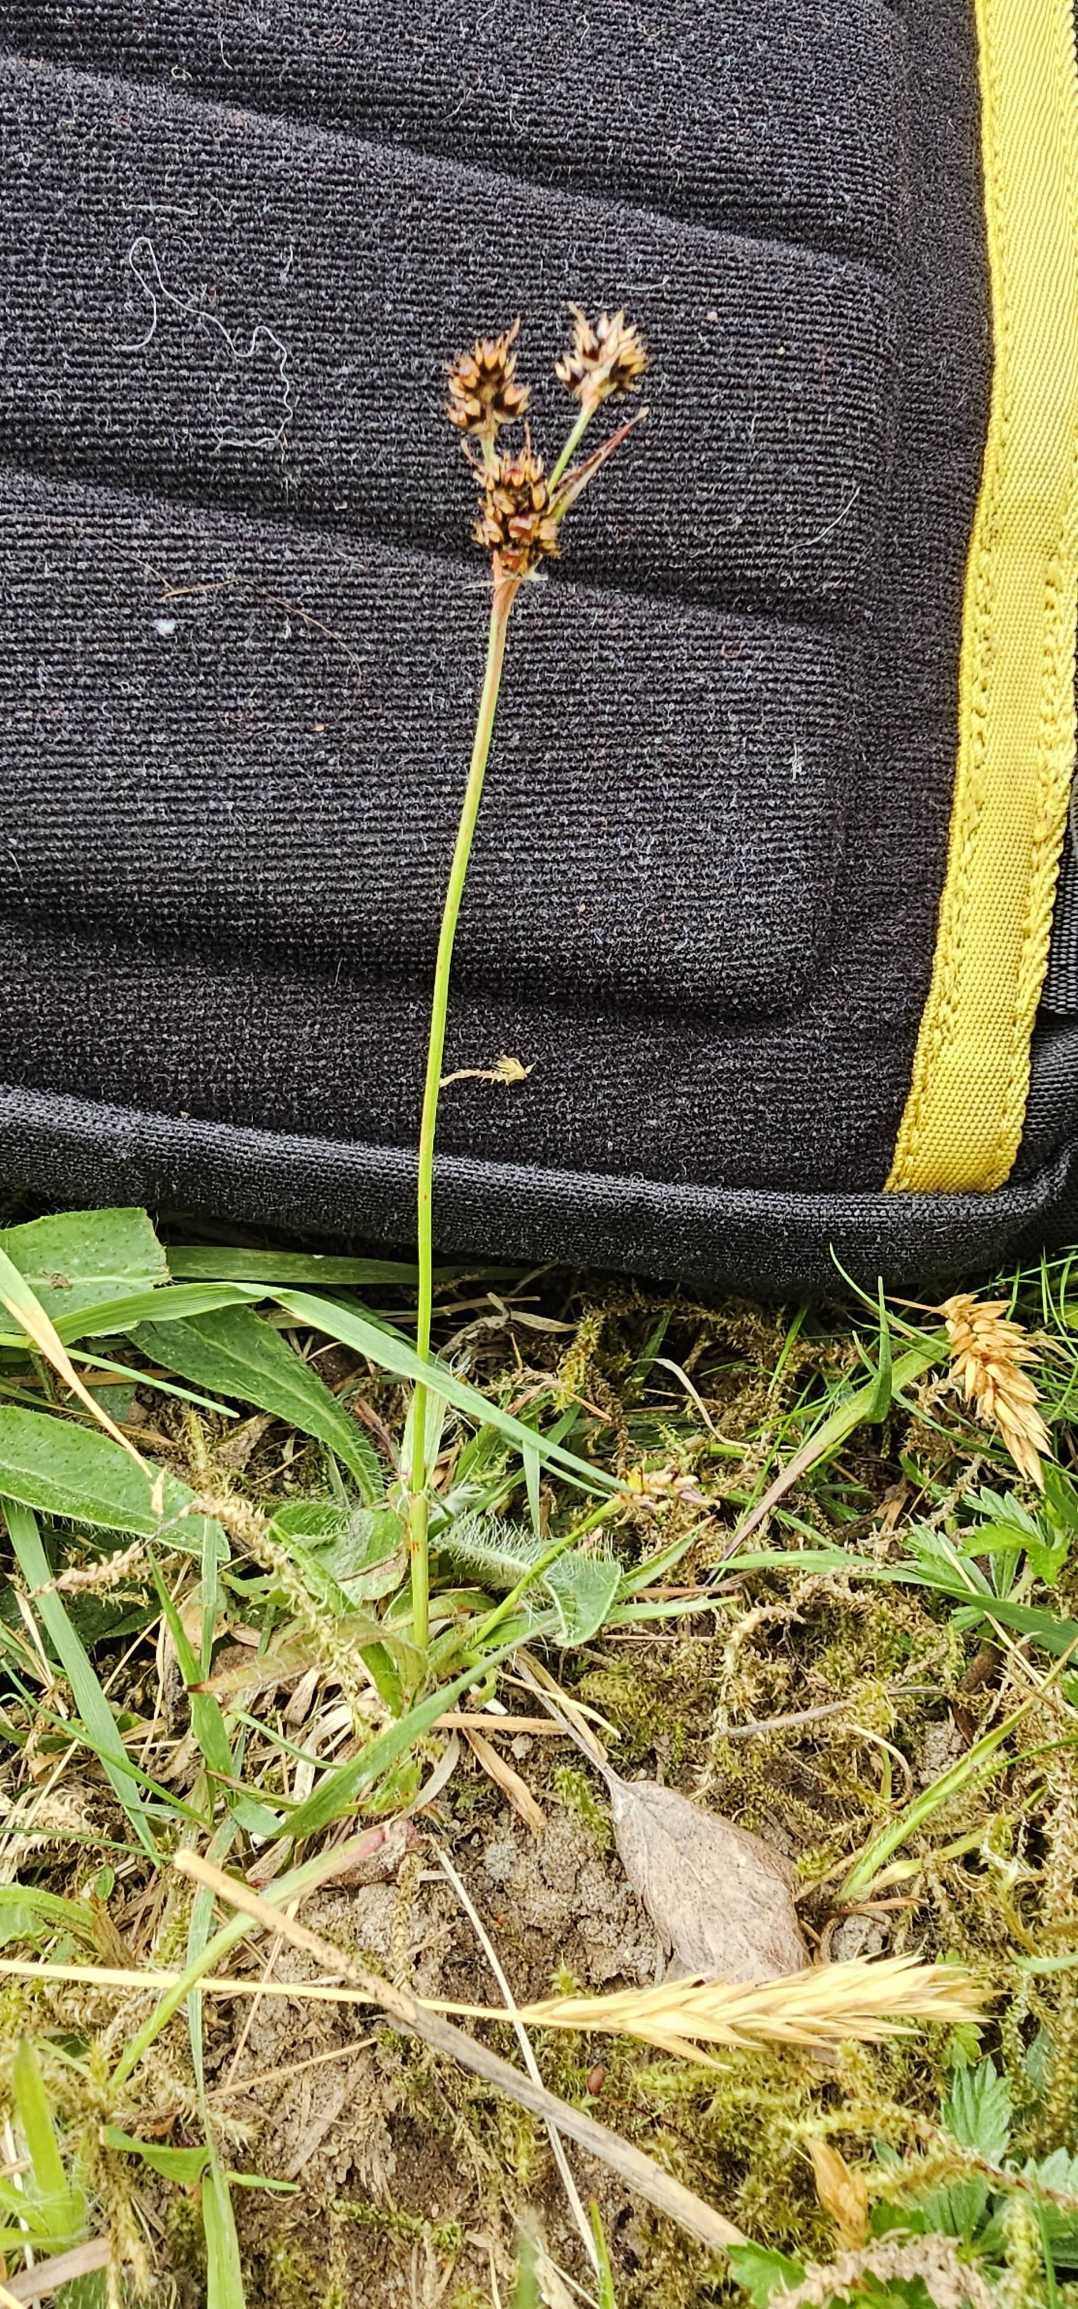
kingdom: Plantae
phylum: Tracheophyta
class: Liliopsida
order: Poales
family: Juncaceae
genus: Luzula
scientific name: Luzula campestris
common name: Mark-frytle
